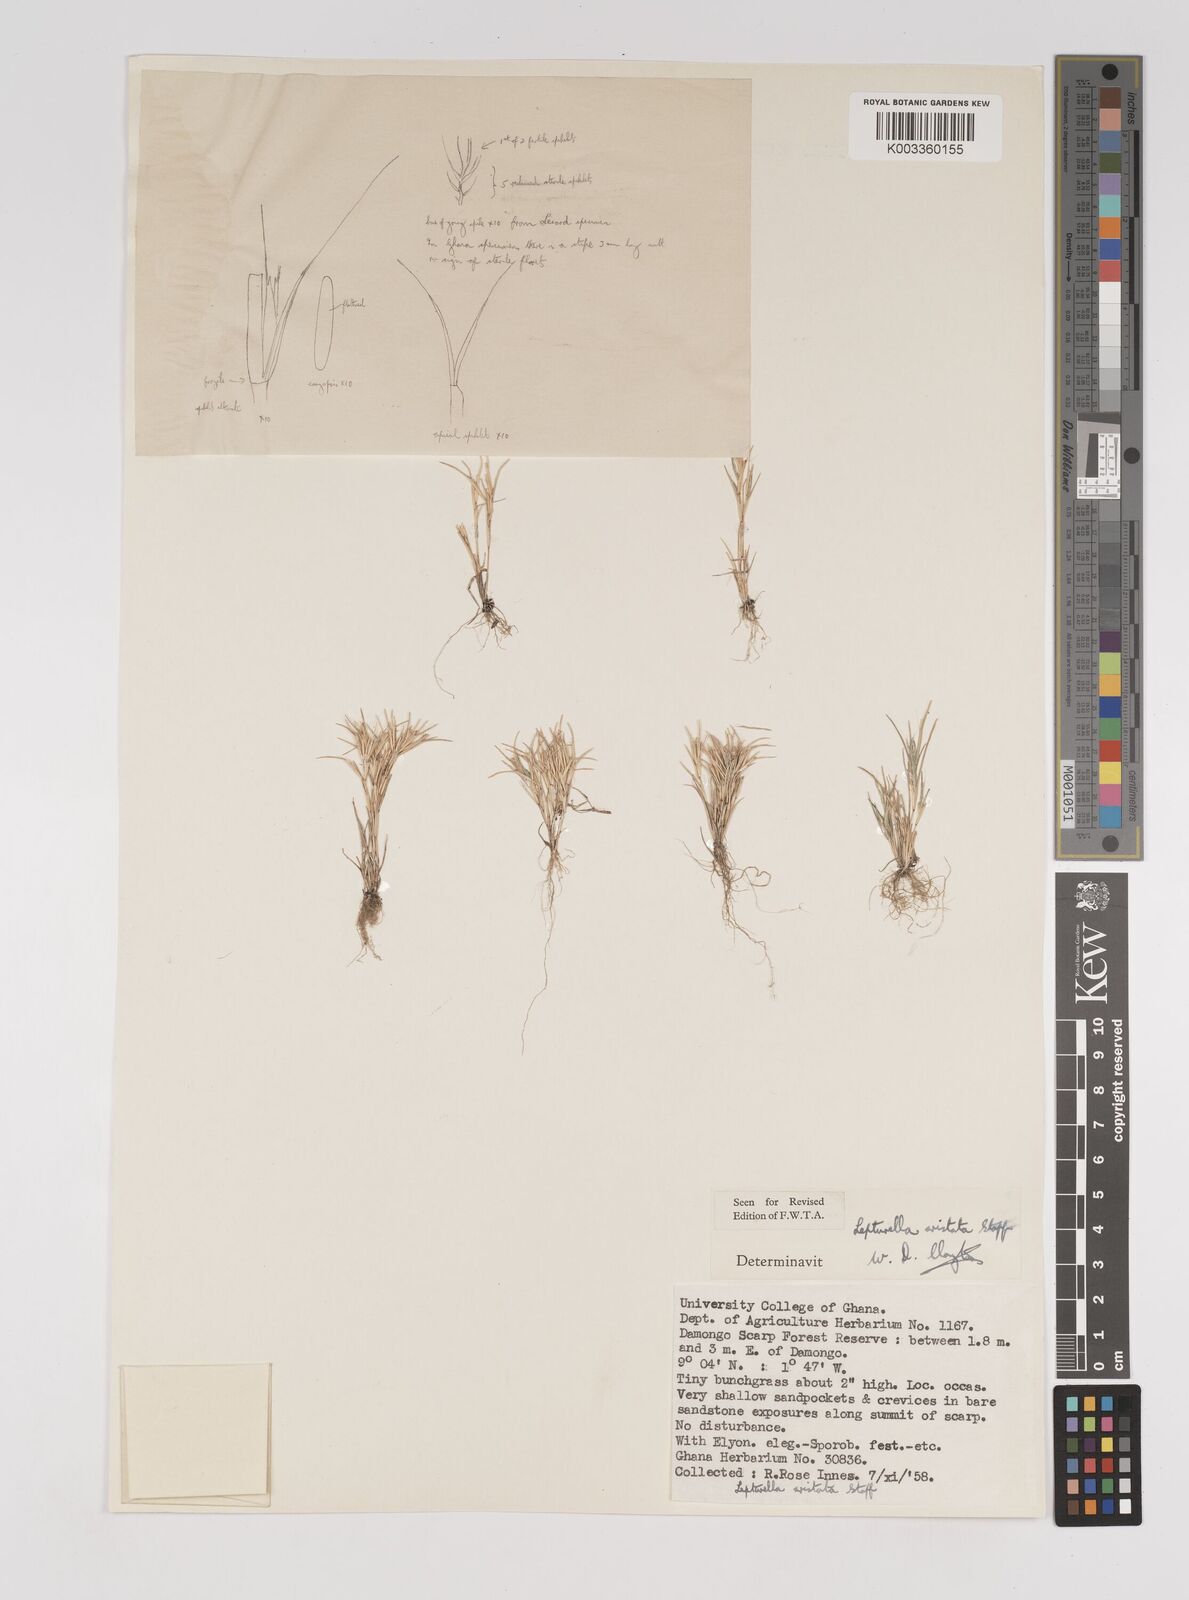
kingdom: Plantae
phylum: Tracheophyta
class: Liliopsida
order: Poales
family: Poaceae
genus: Oropetium
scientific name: Oropetium aristatum
